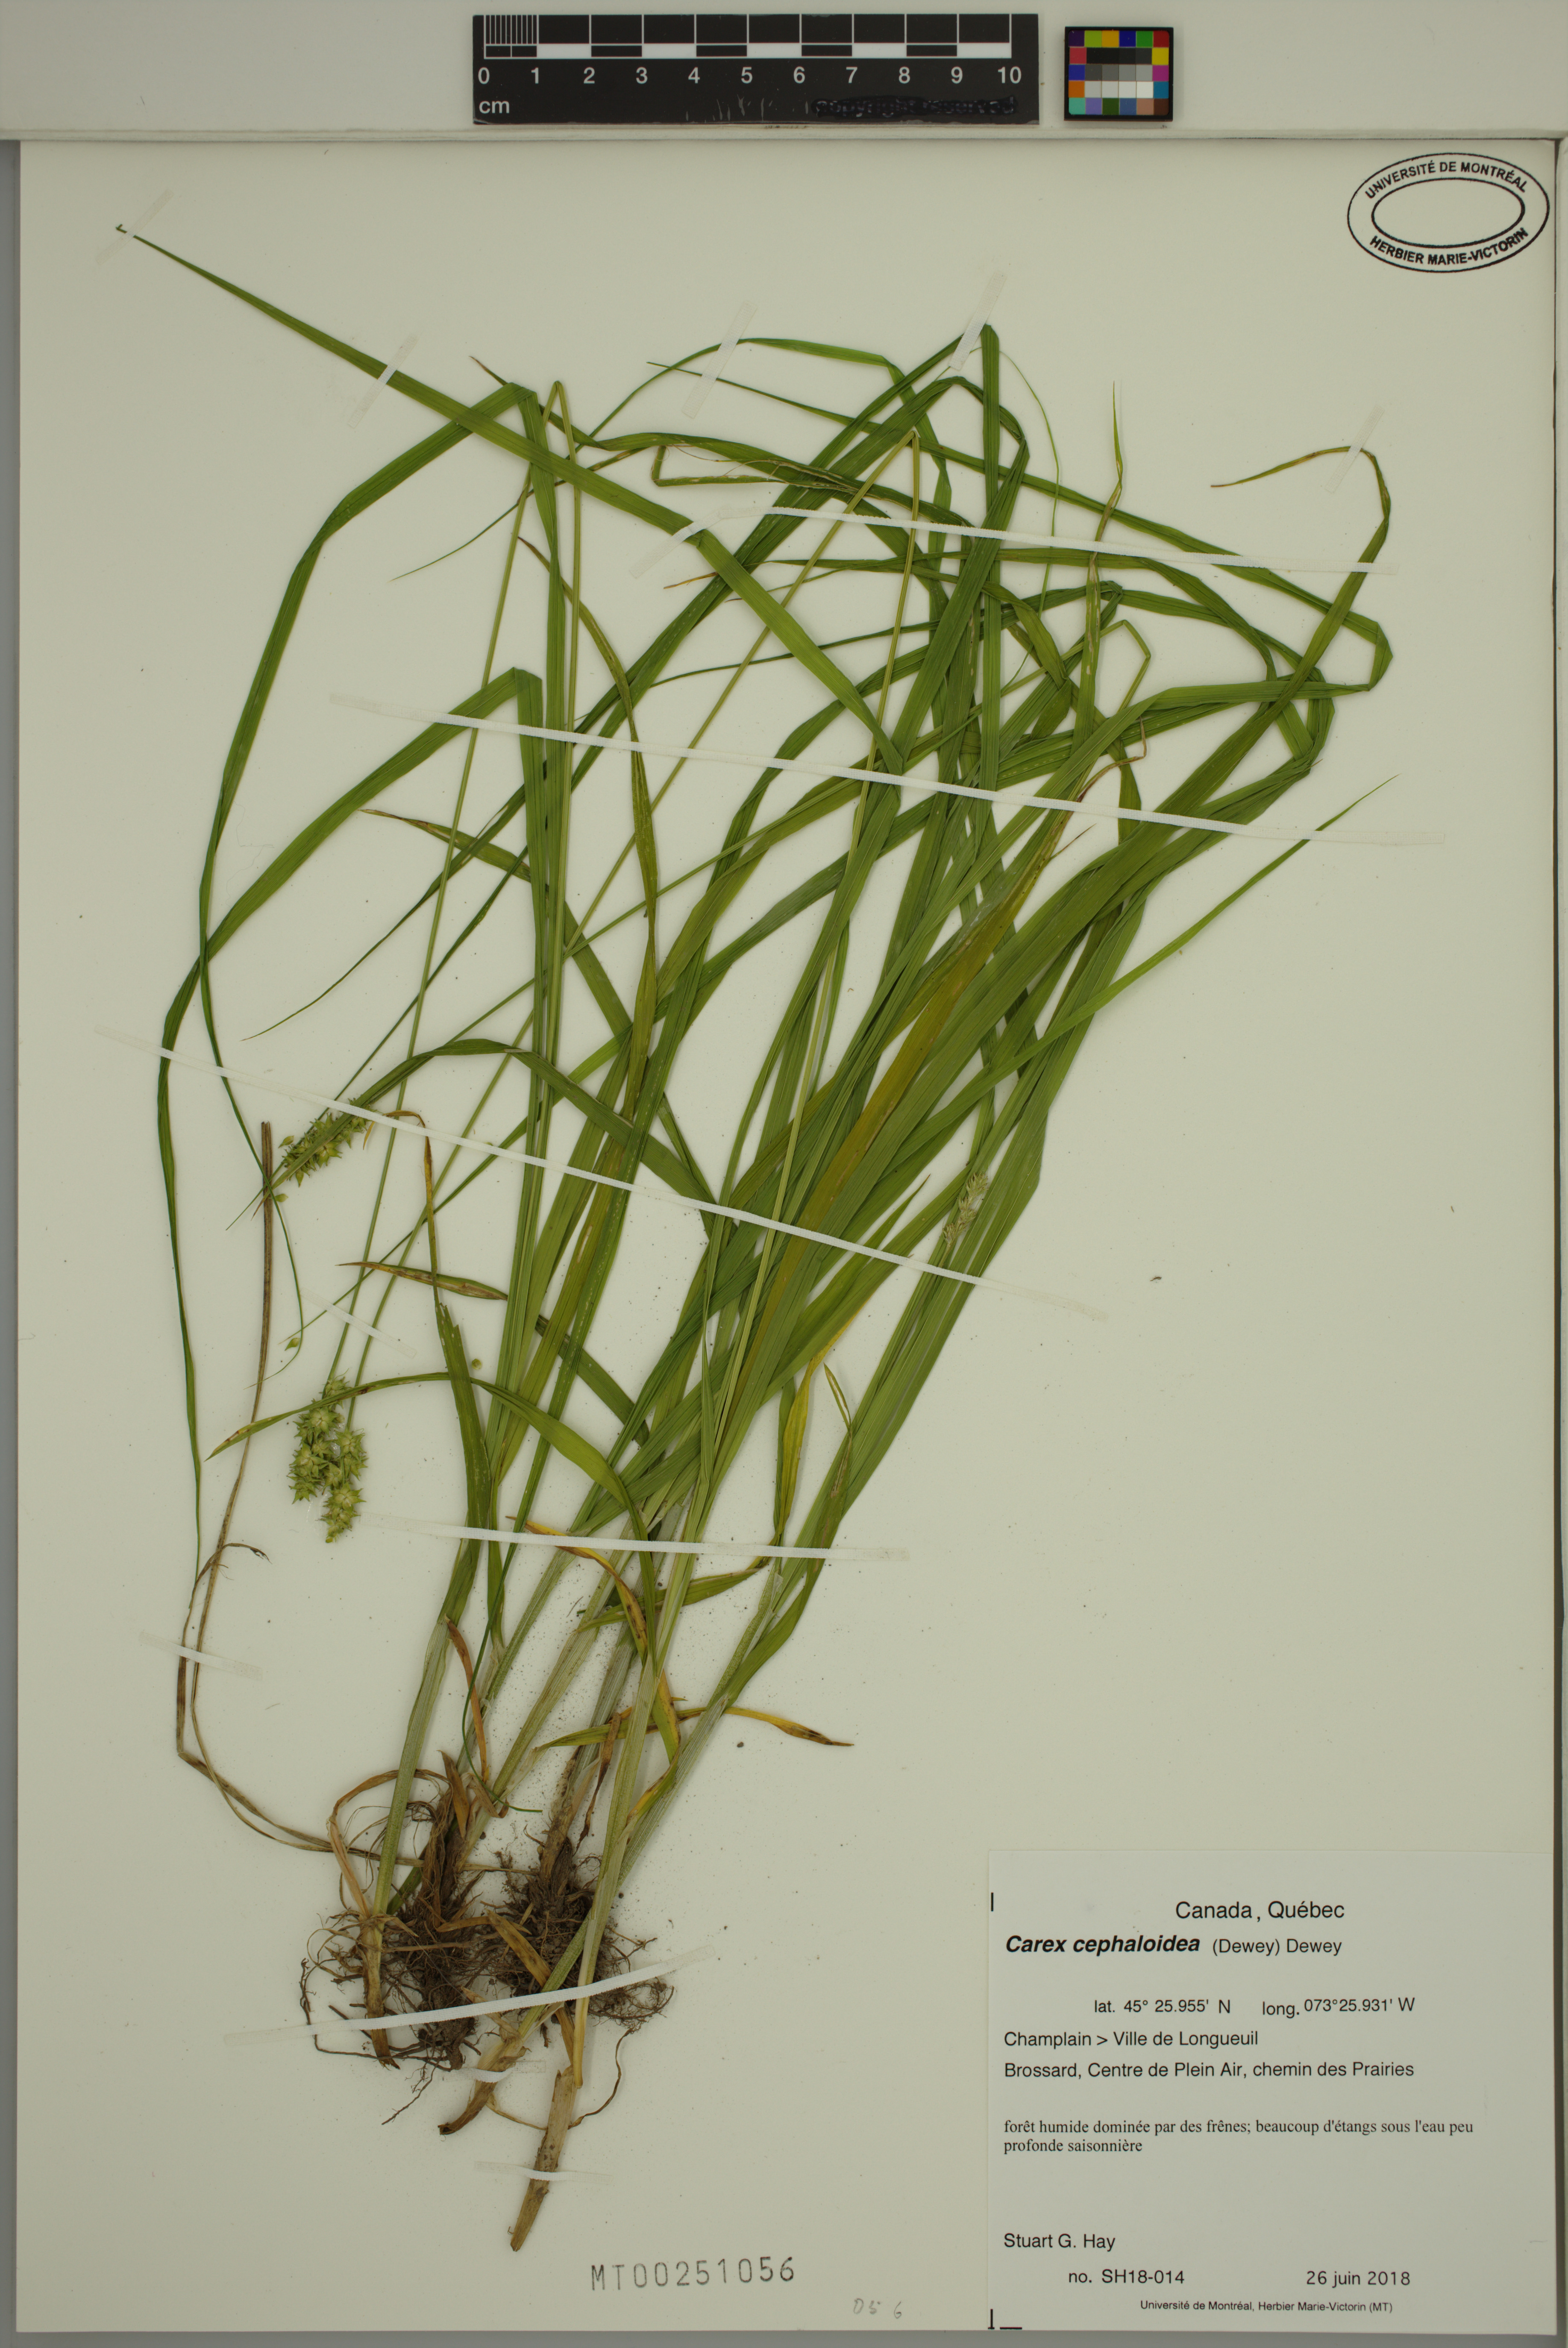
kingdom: Plantae
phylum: Tracheophyta
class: Liliopsida
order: Poales
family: Cyperaceae
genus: Carex
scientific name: Carex cephaloidea
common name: Thin-leaved sedge
